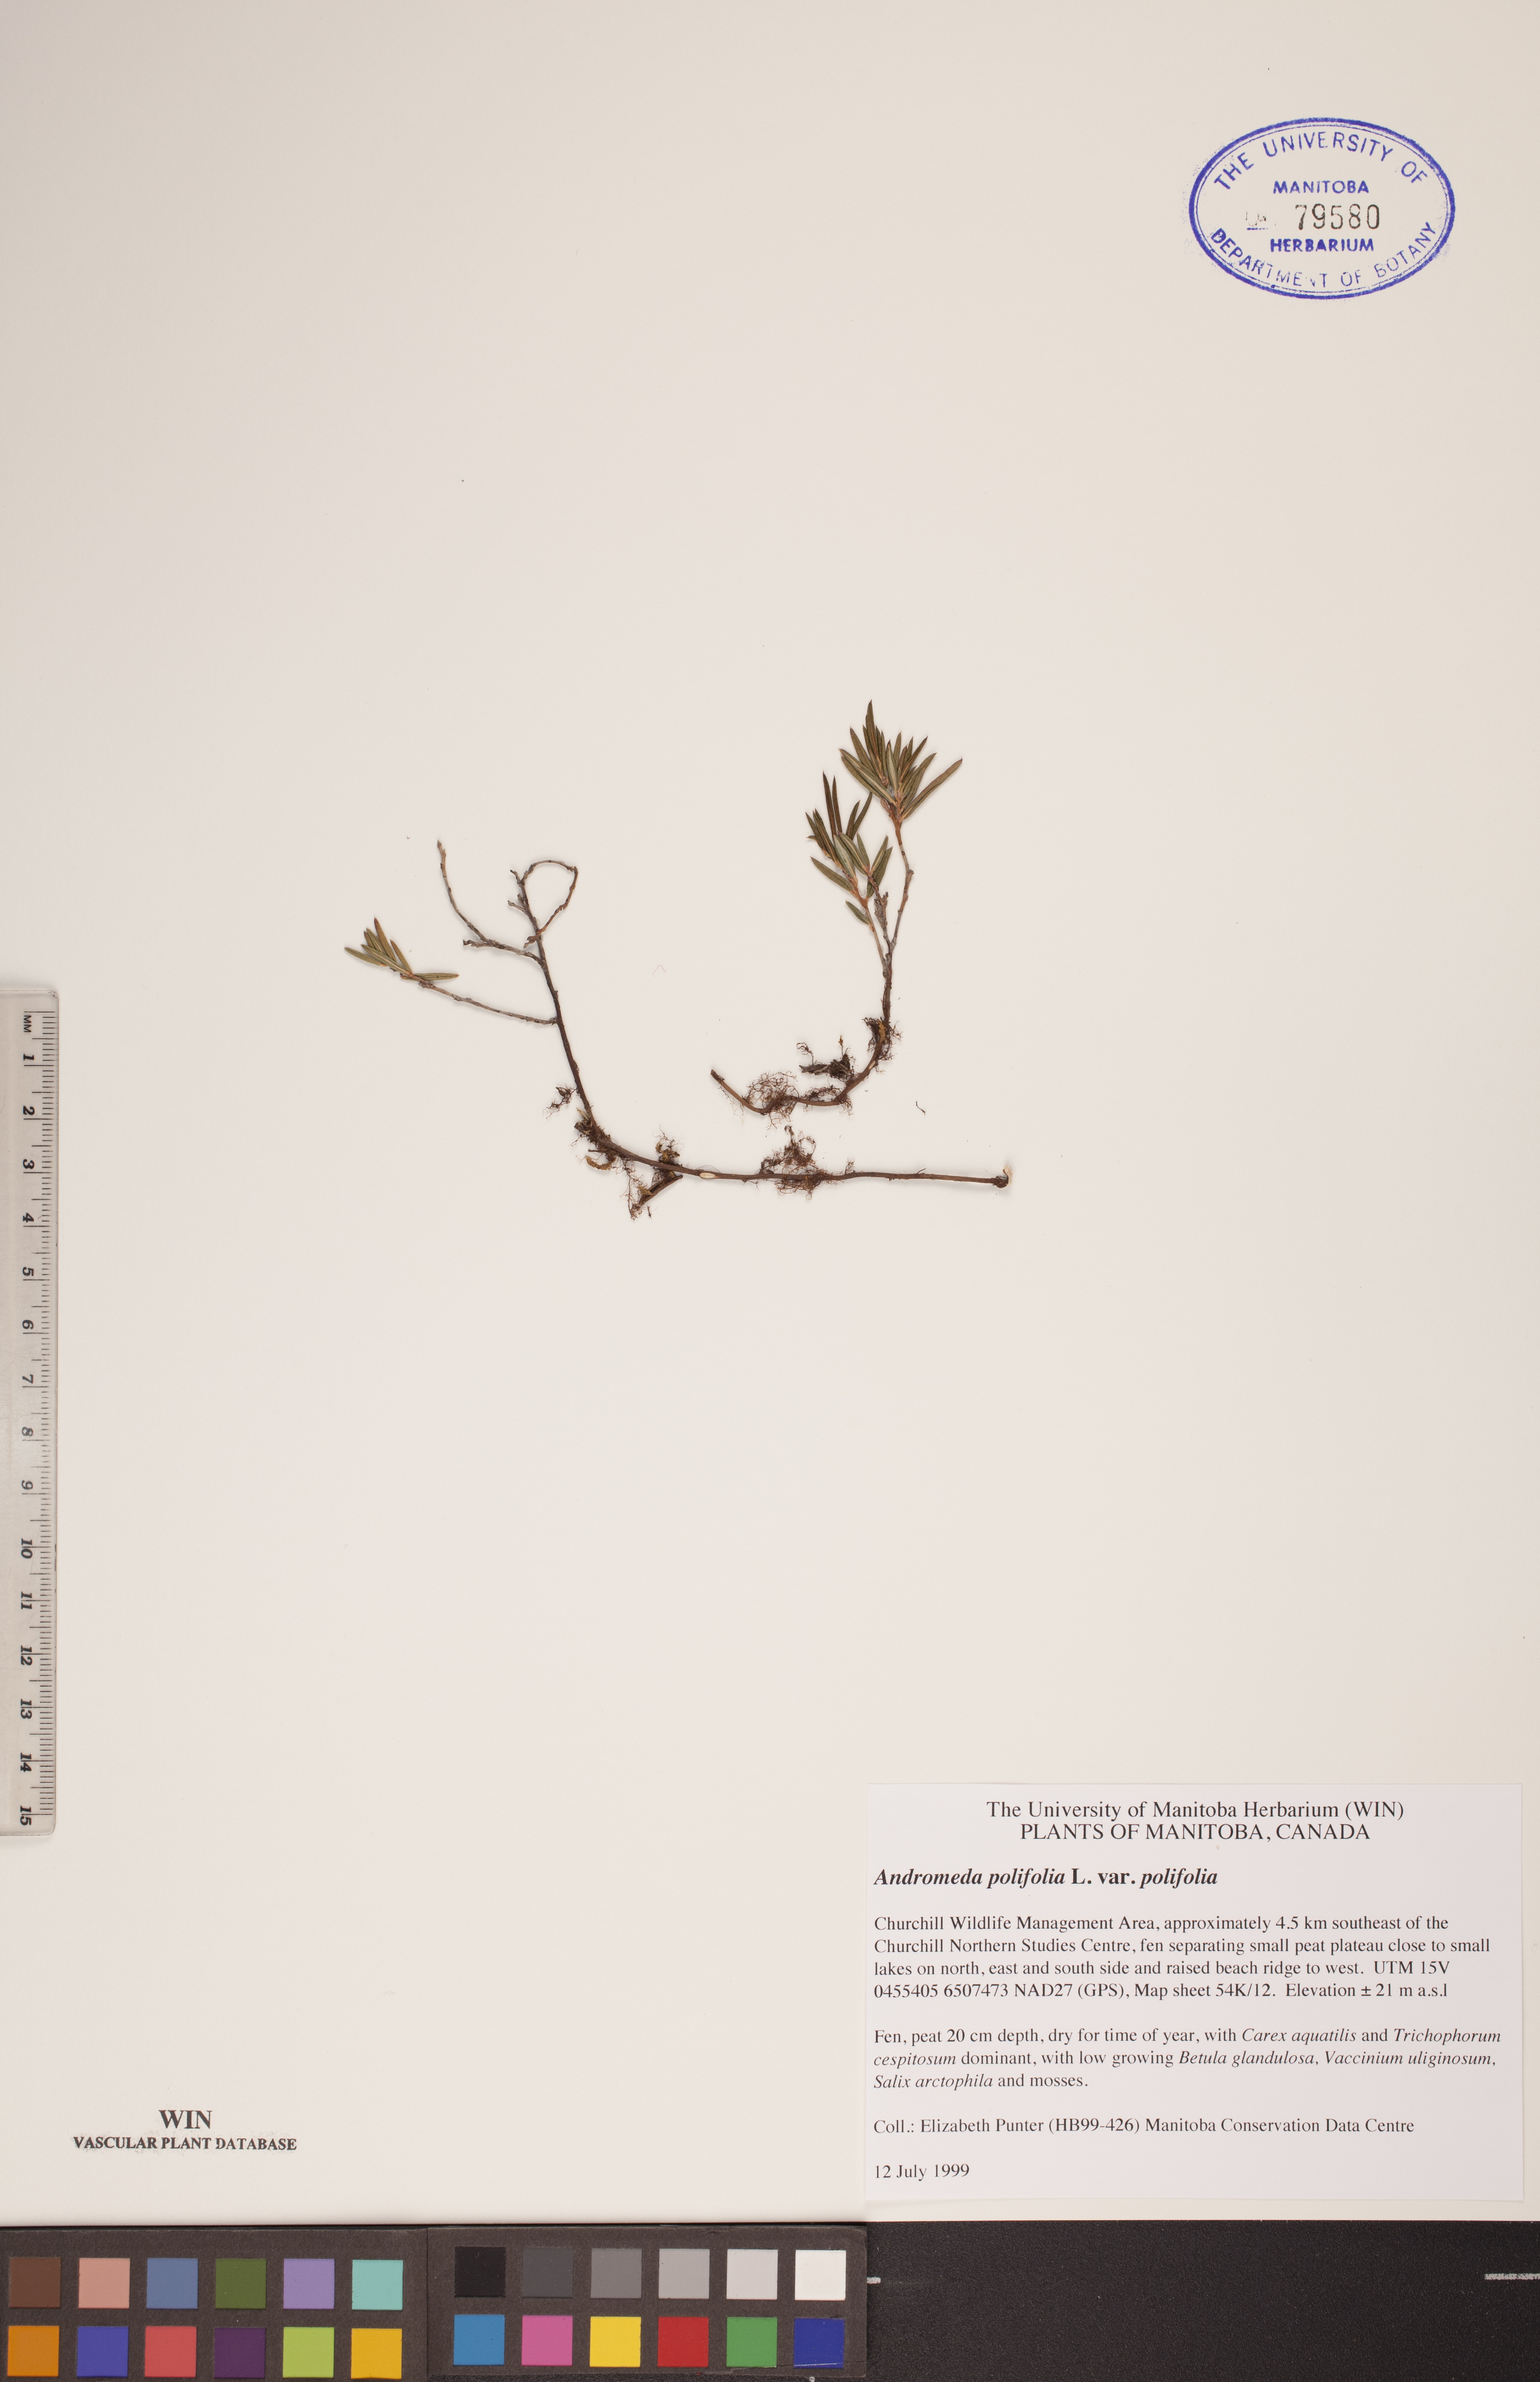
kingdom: Plantae
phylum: Tracheophyta
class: Magnoliopsida
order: Ericales
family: Ericaceae
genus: Andromeda
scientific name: Andromeda polifolia
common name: Bog-rosemary
